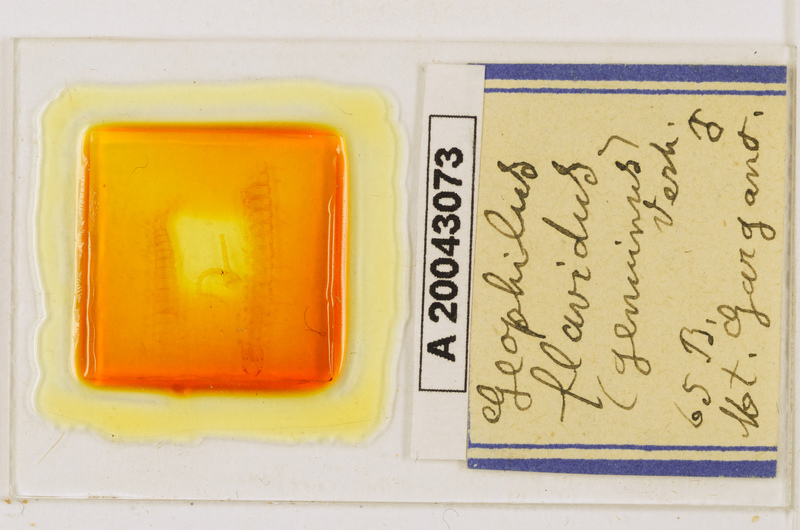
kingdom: Animalia
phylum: Arthropoda
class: Chilopoda
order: Geophilomorpha
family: Geophilidae
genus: Clinopodes
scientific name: Clinopodes flavidus
